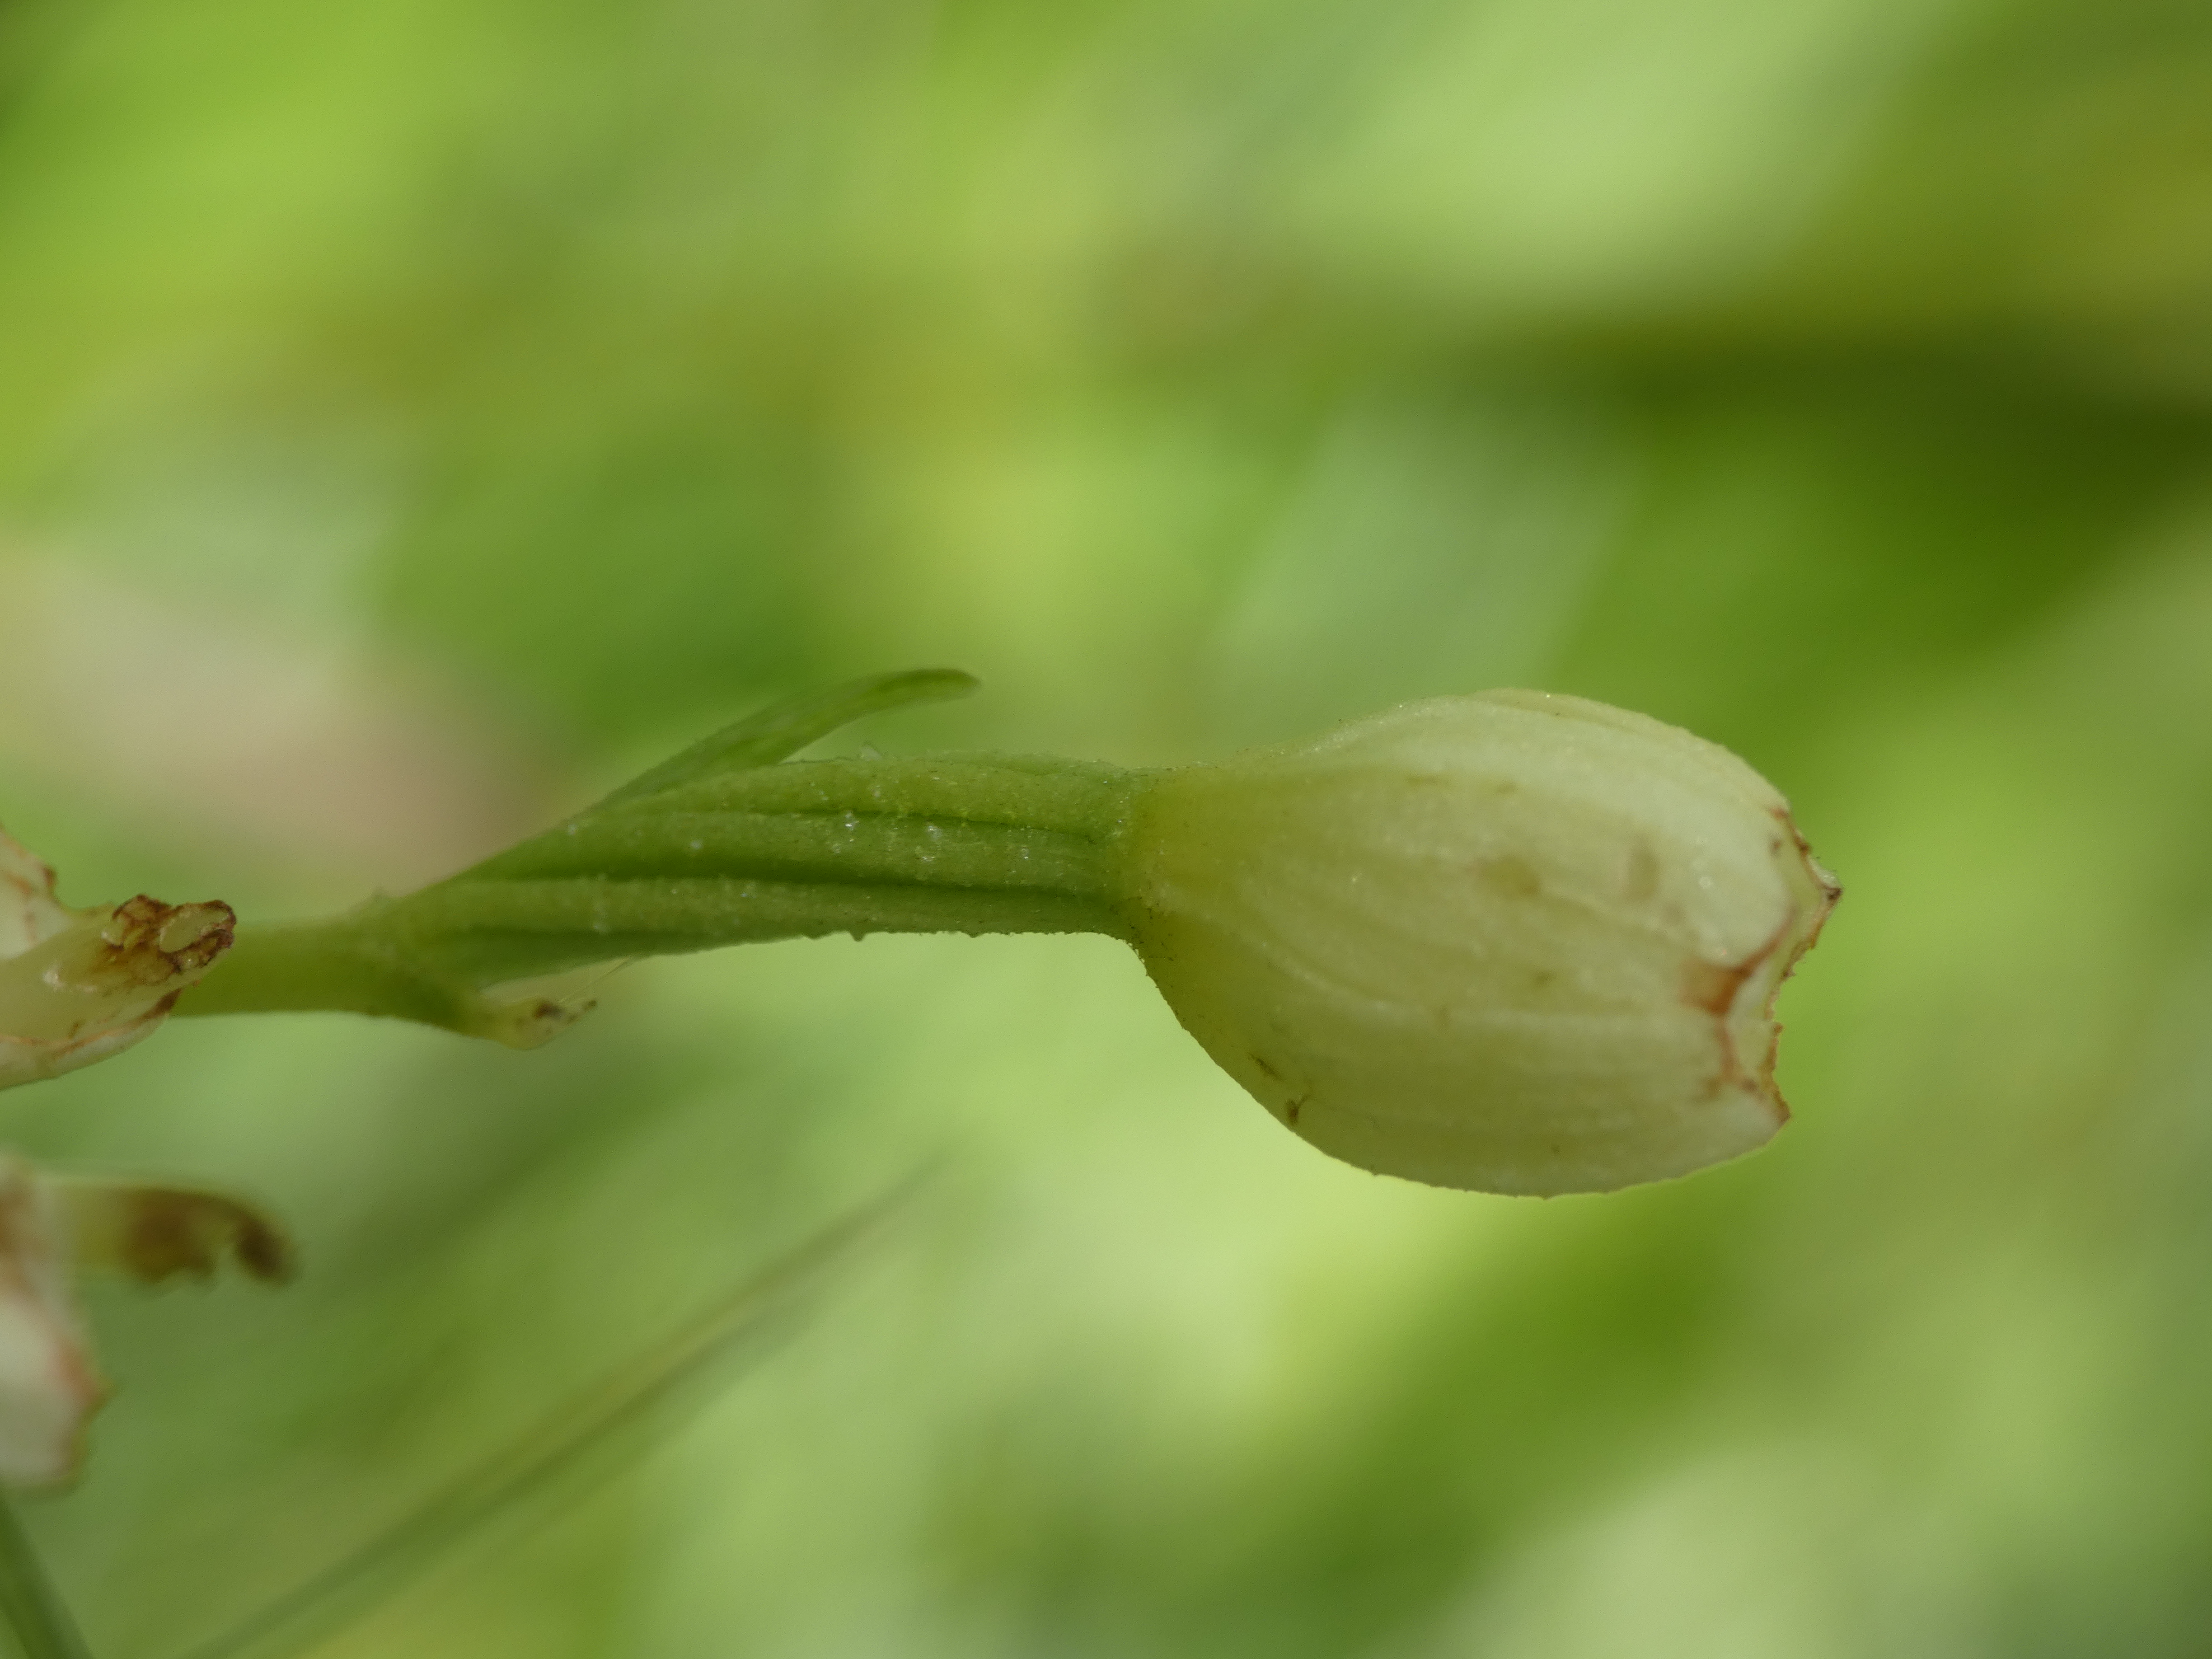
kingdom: Plantae
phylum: Tracheophyta
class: Liliopsida
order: Asparagales
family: Orchidaceae
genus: Cephalanthera
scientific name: Cephalanthera damasonium
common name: Hvidgul skovlilje
